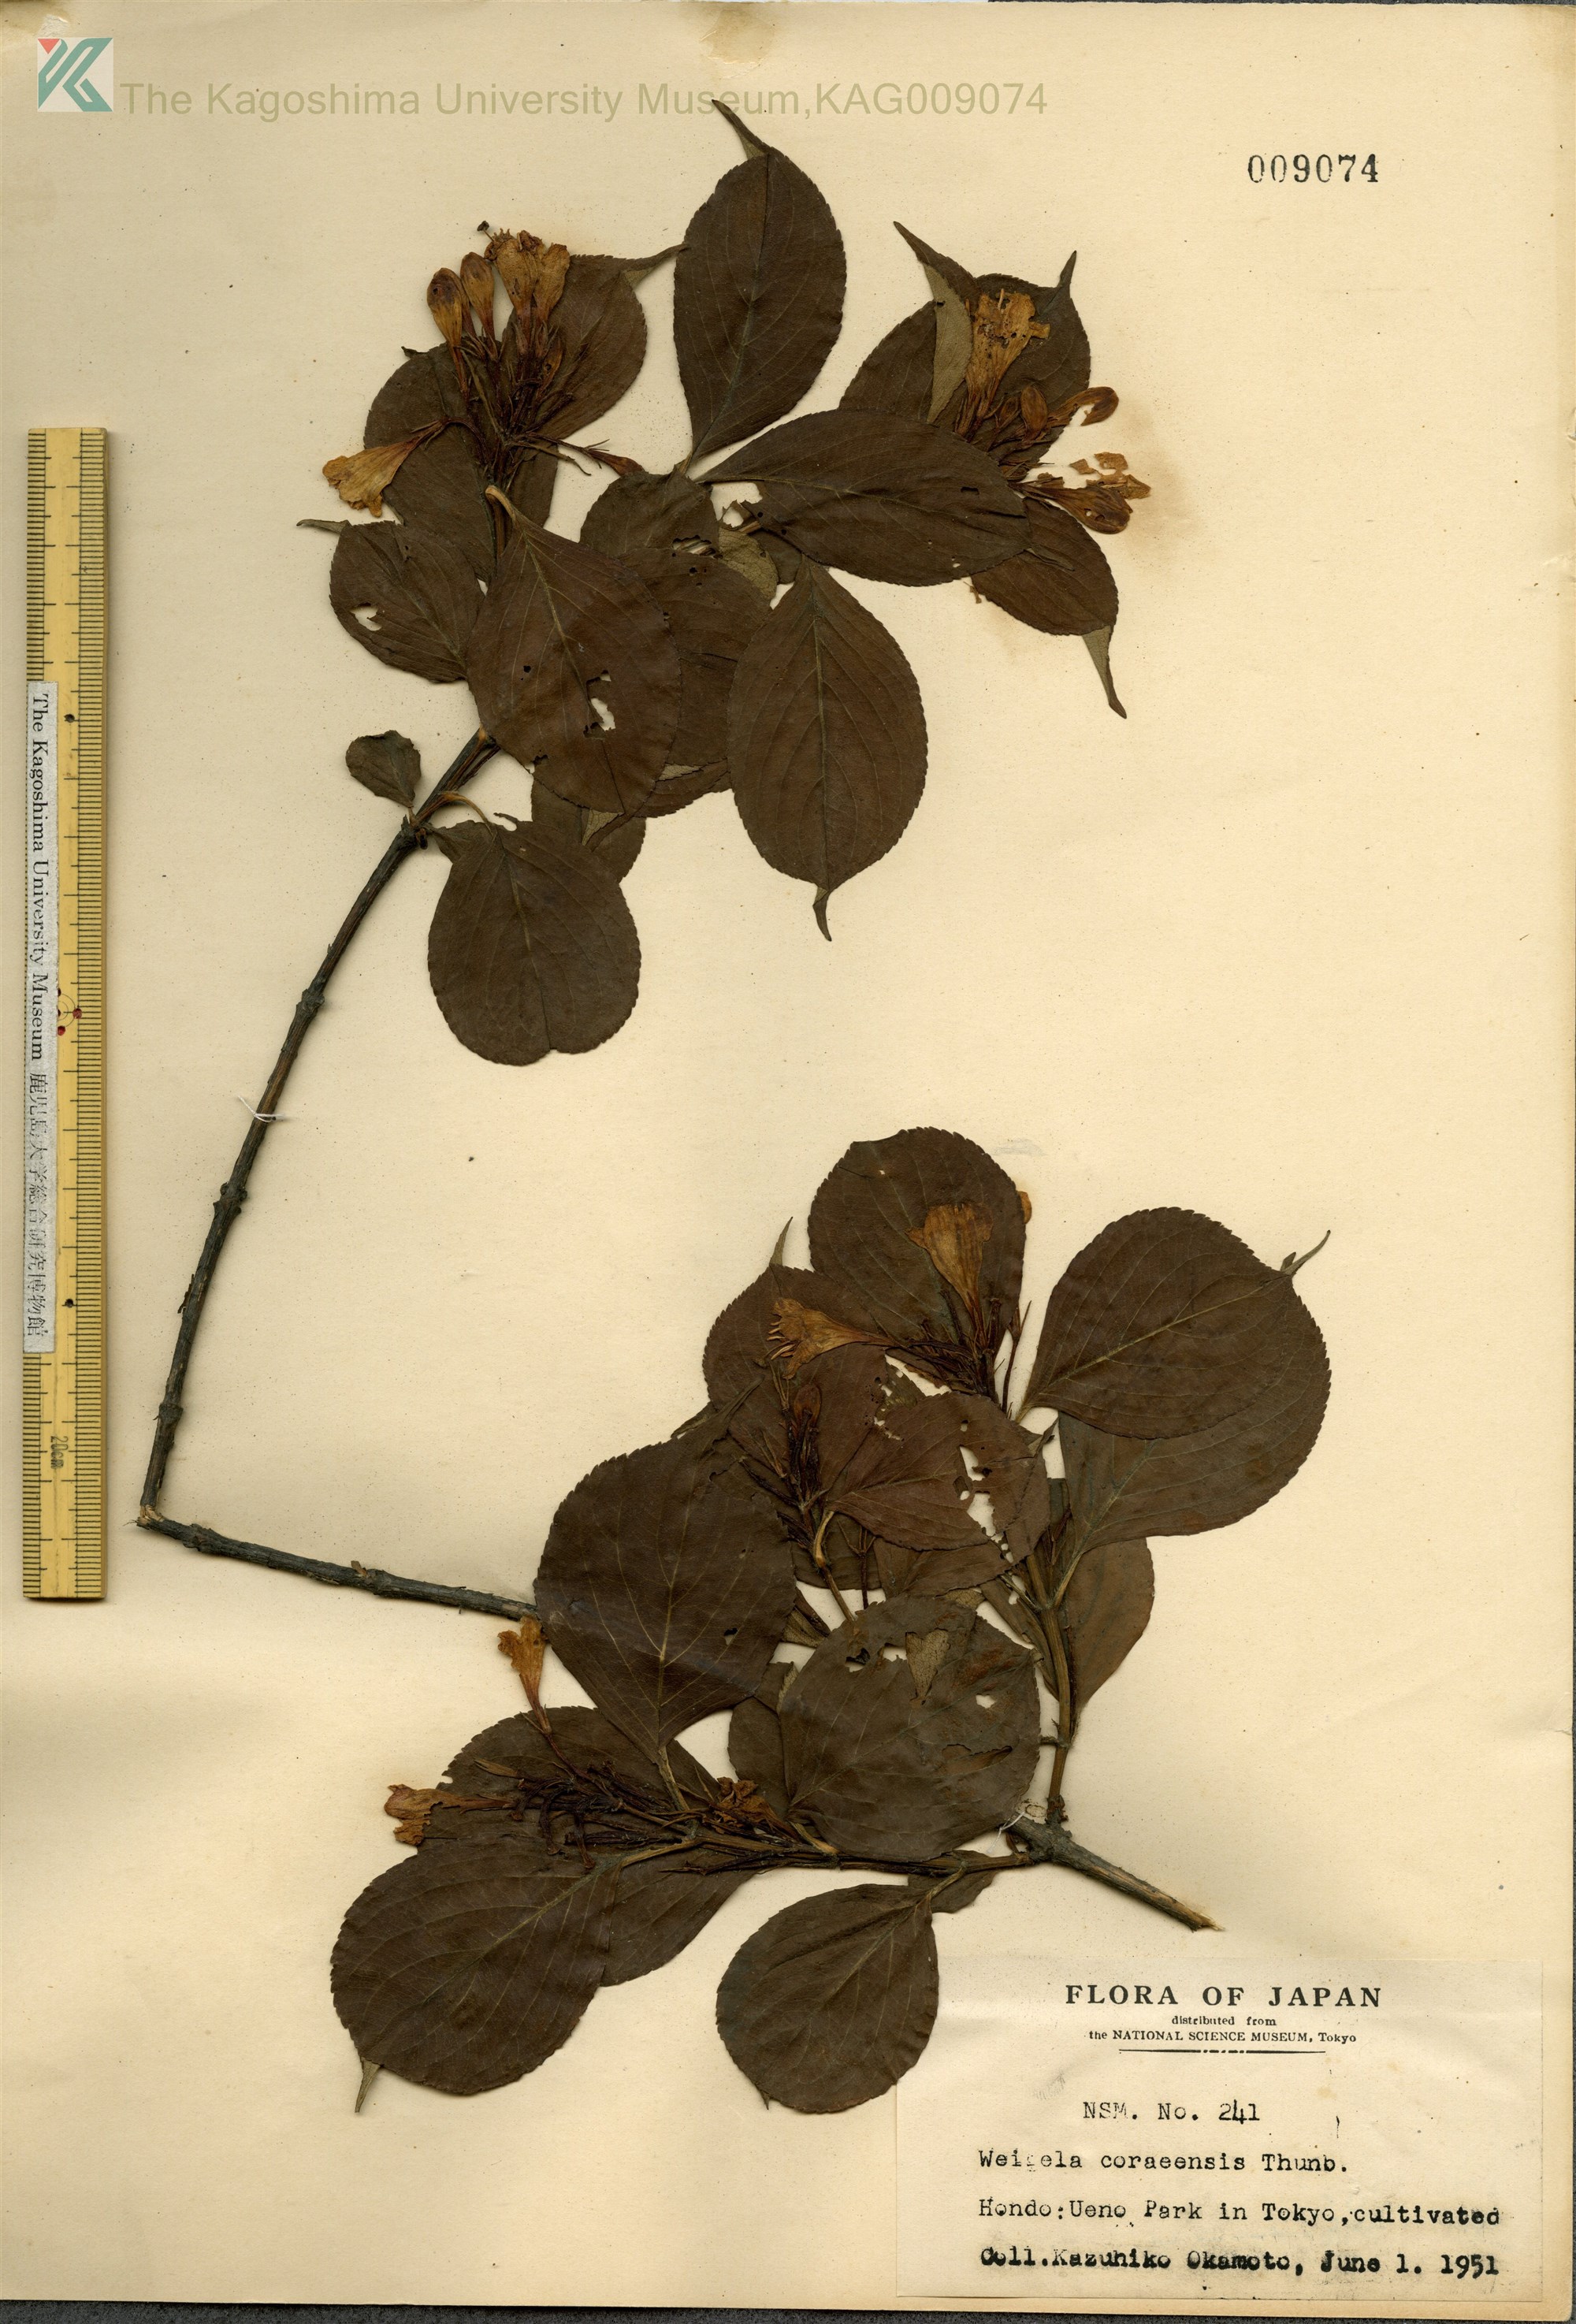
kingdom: Plantae
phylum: Tracheophyta
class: Magnoliopsida
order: Dipsacales
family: Caprifoliaceae
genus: Weigela
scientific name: Weigela
